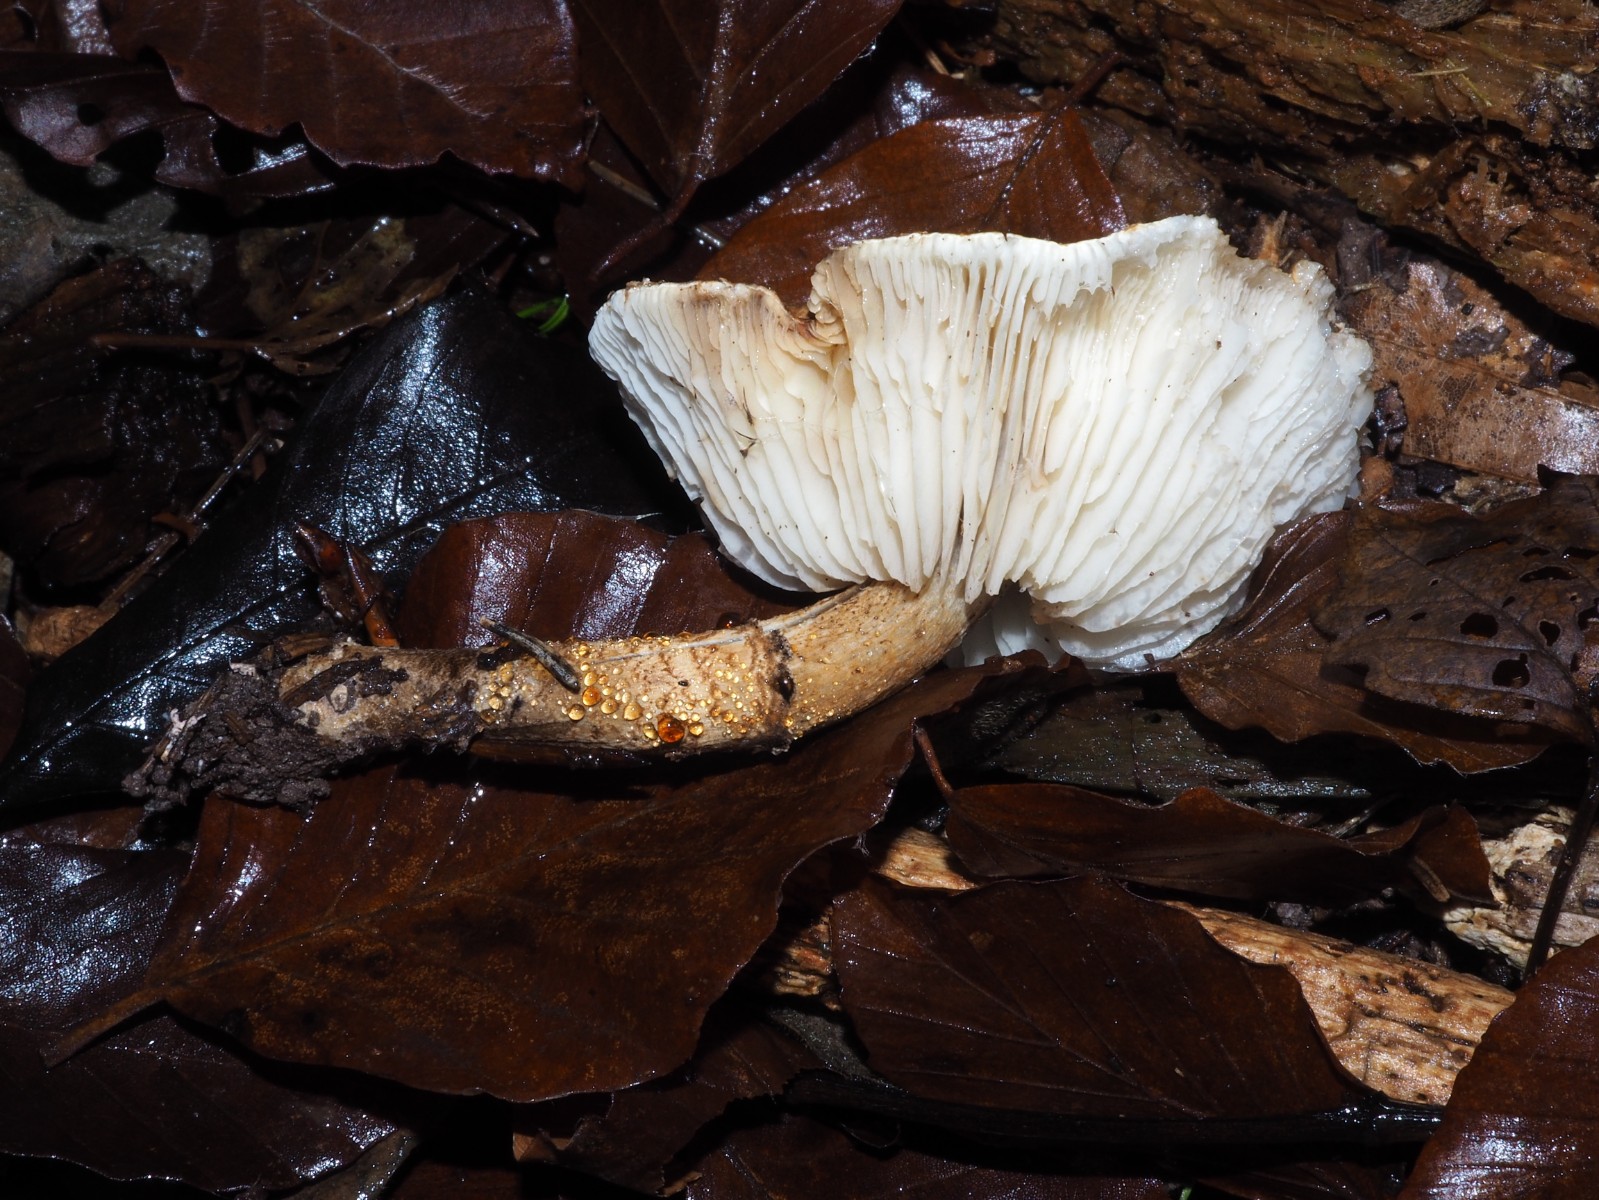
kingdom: Fungi
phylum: Basidiomycota
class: Agaricomycetes
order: Agaricales
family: Agaricaceae
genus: Chamaemyces
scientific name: Chamaemyces fracidus
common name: dråbehat
